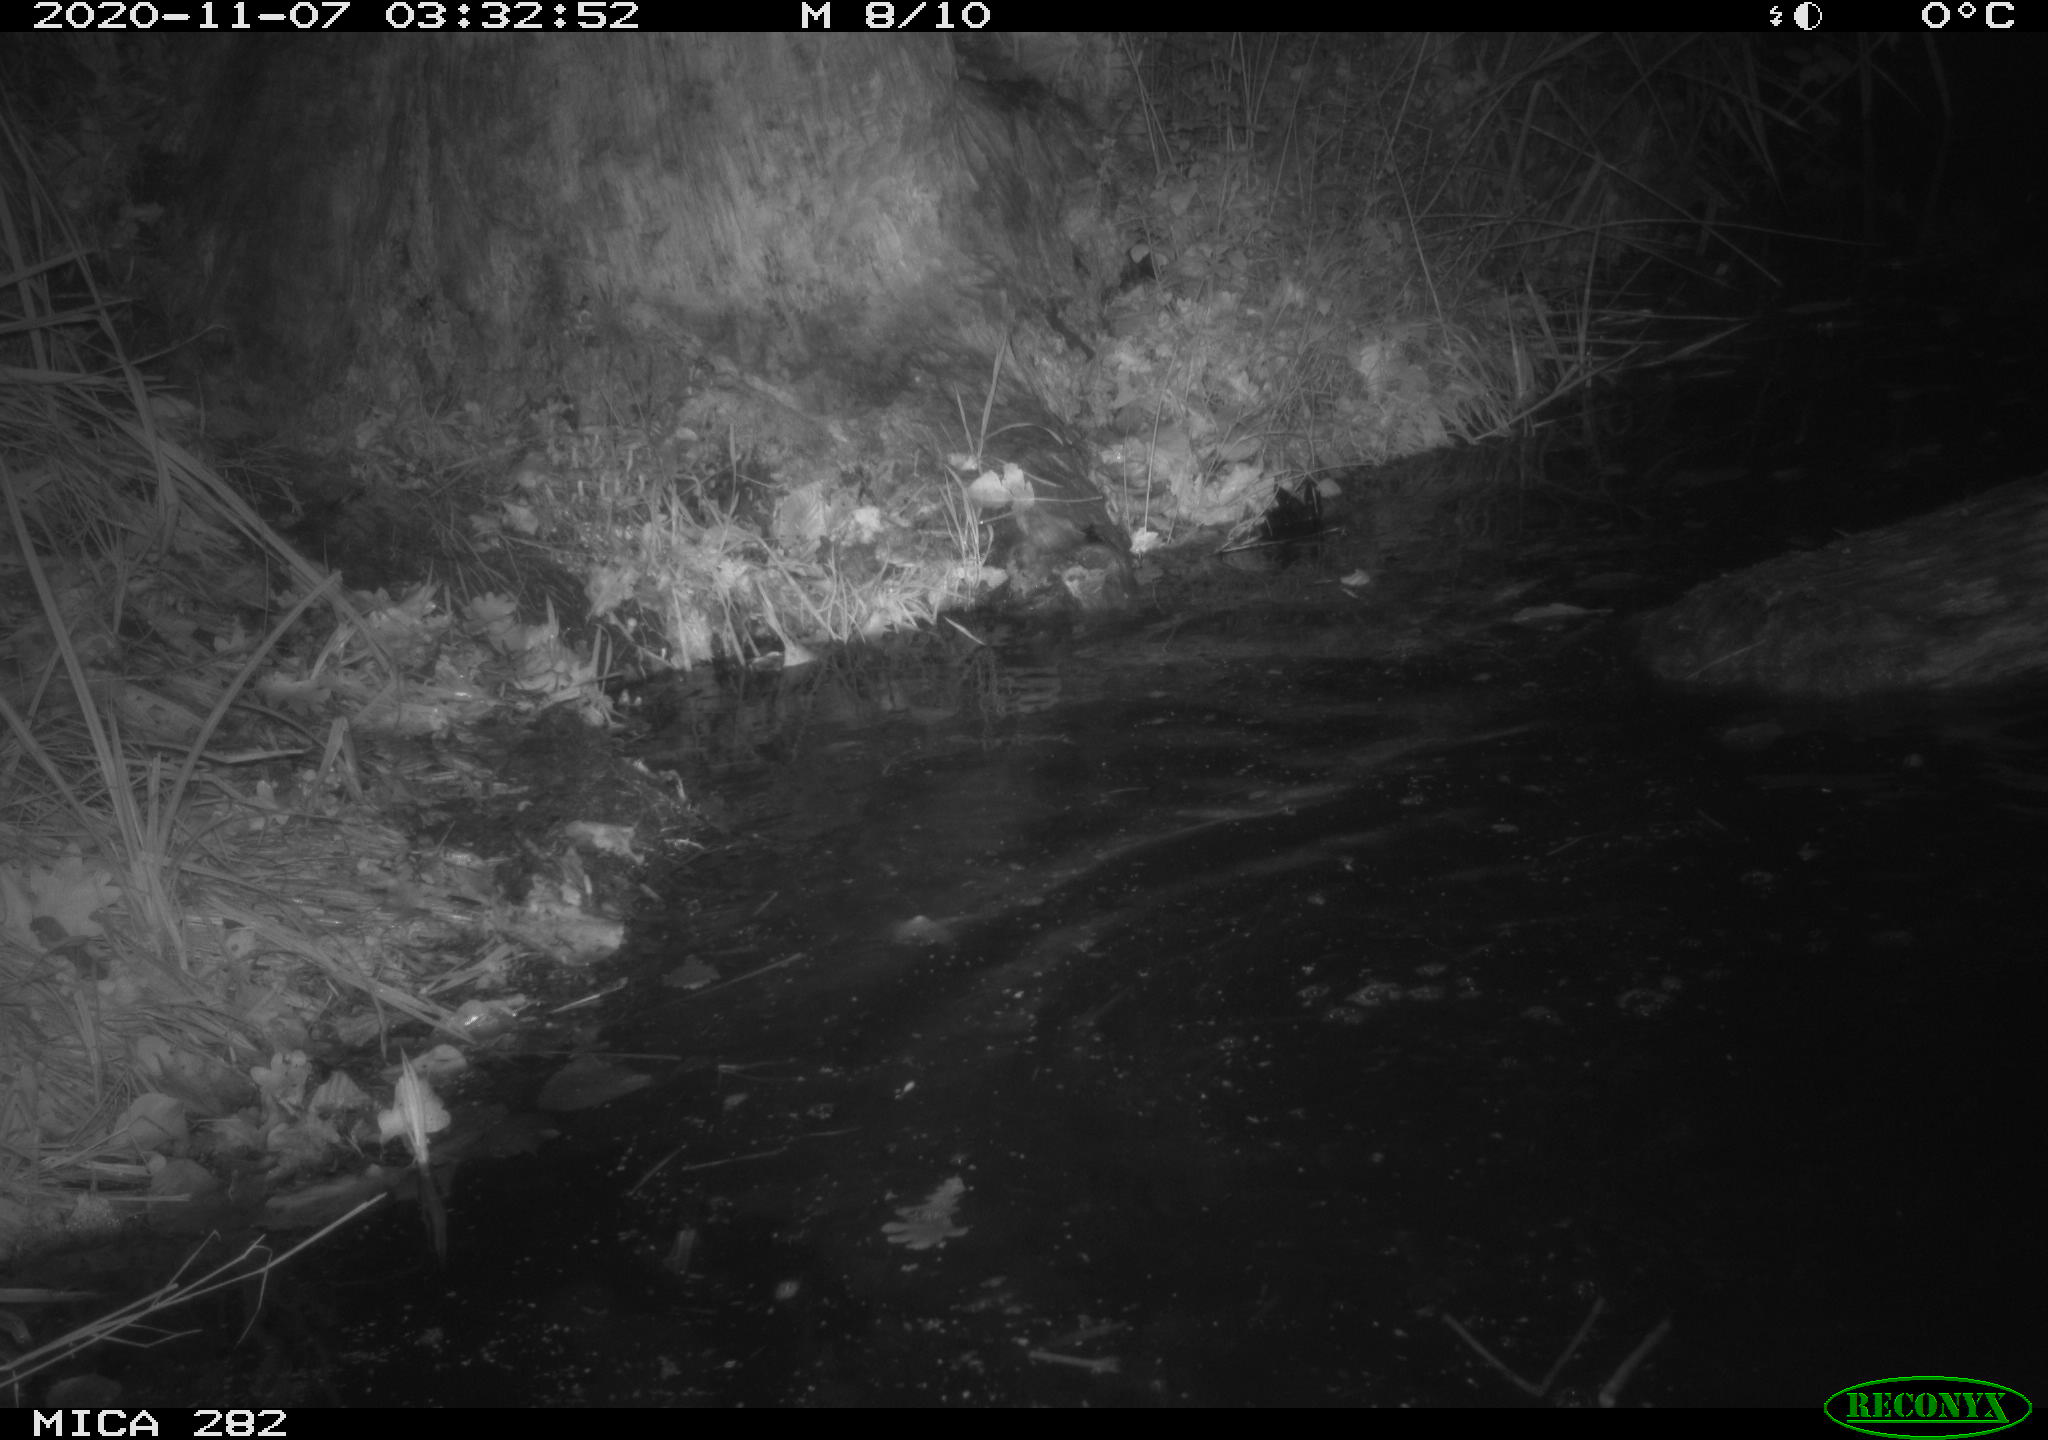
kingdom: Animalia
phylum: Chordata
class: Mammalia
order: Rodentia
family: Castoridae
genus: Castor
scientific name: Castor fiber
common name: Eurasian beaver
